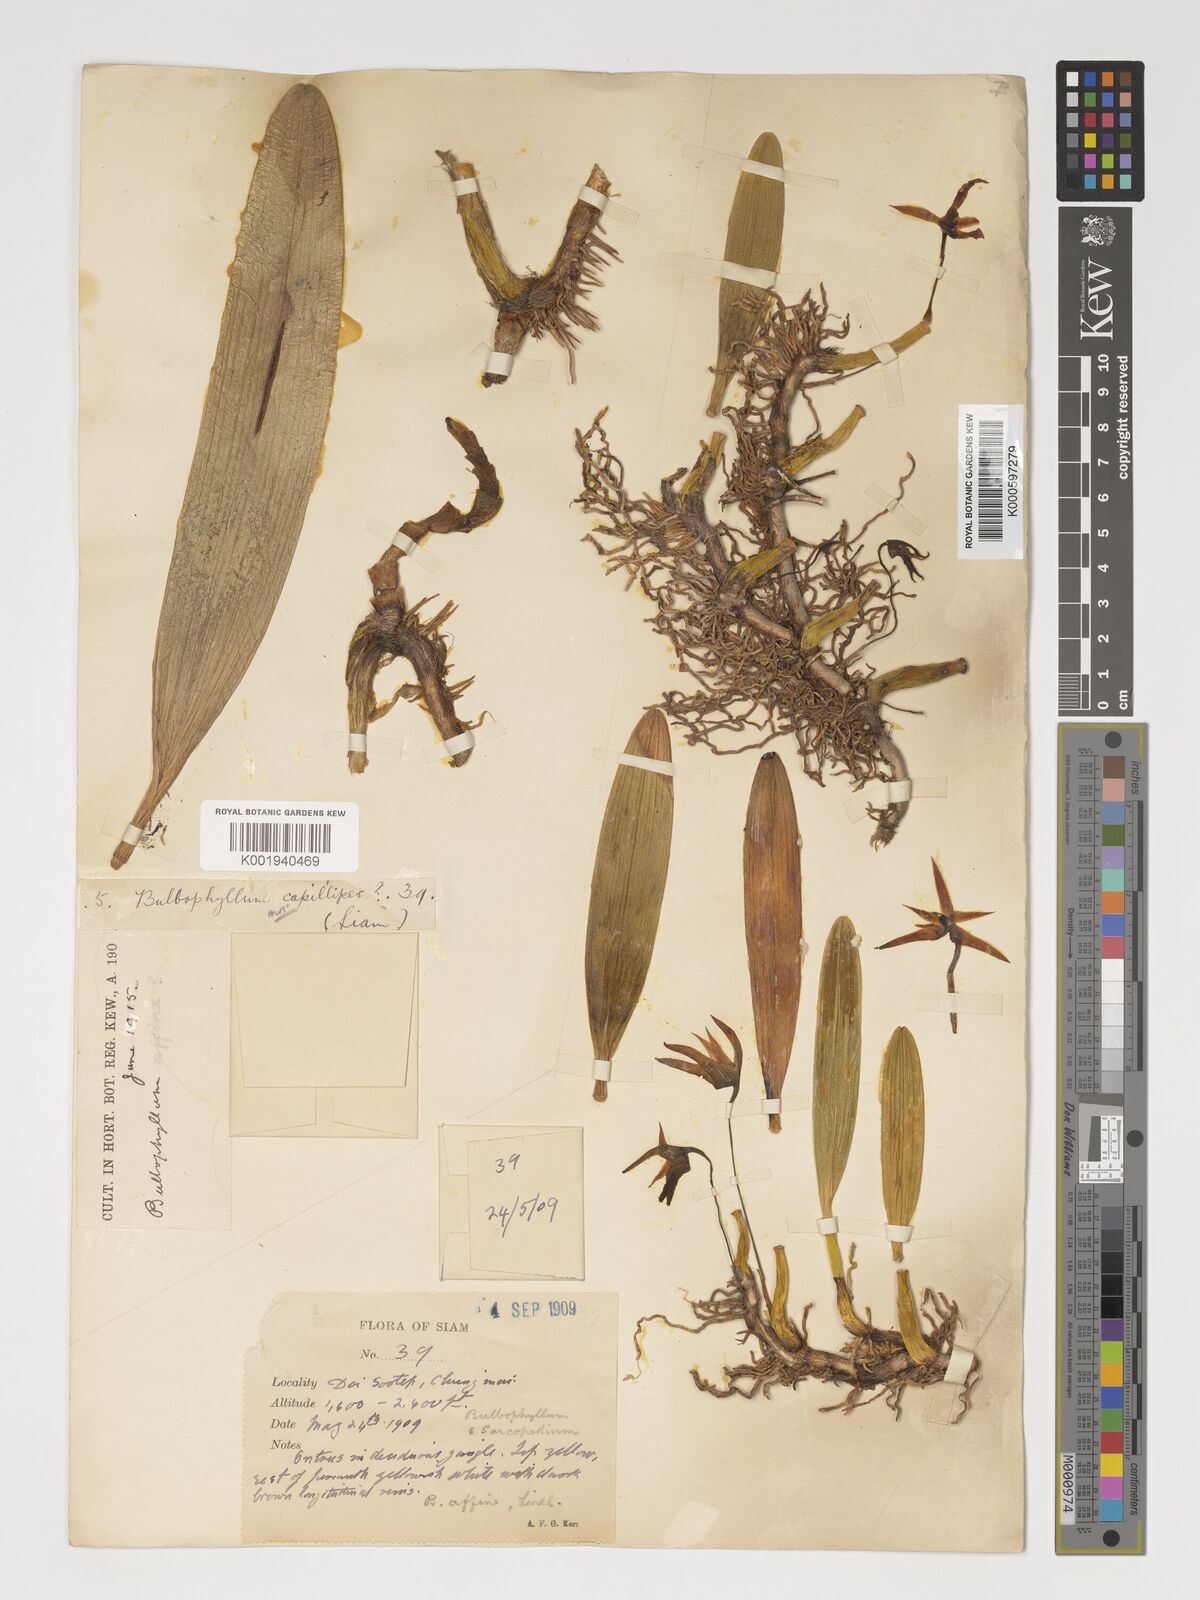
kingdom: Plantae
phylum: Tracheophyta
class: Liliopsida
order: Asparagales
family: Orchidaceae
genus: Bulbophyllum
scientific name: Bulbophyllum affine
